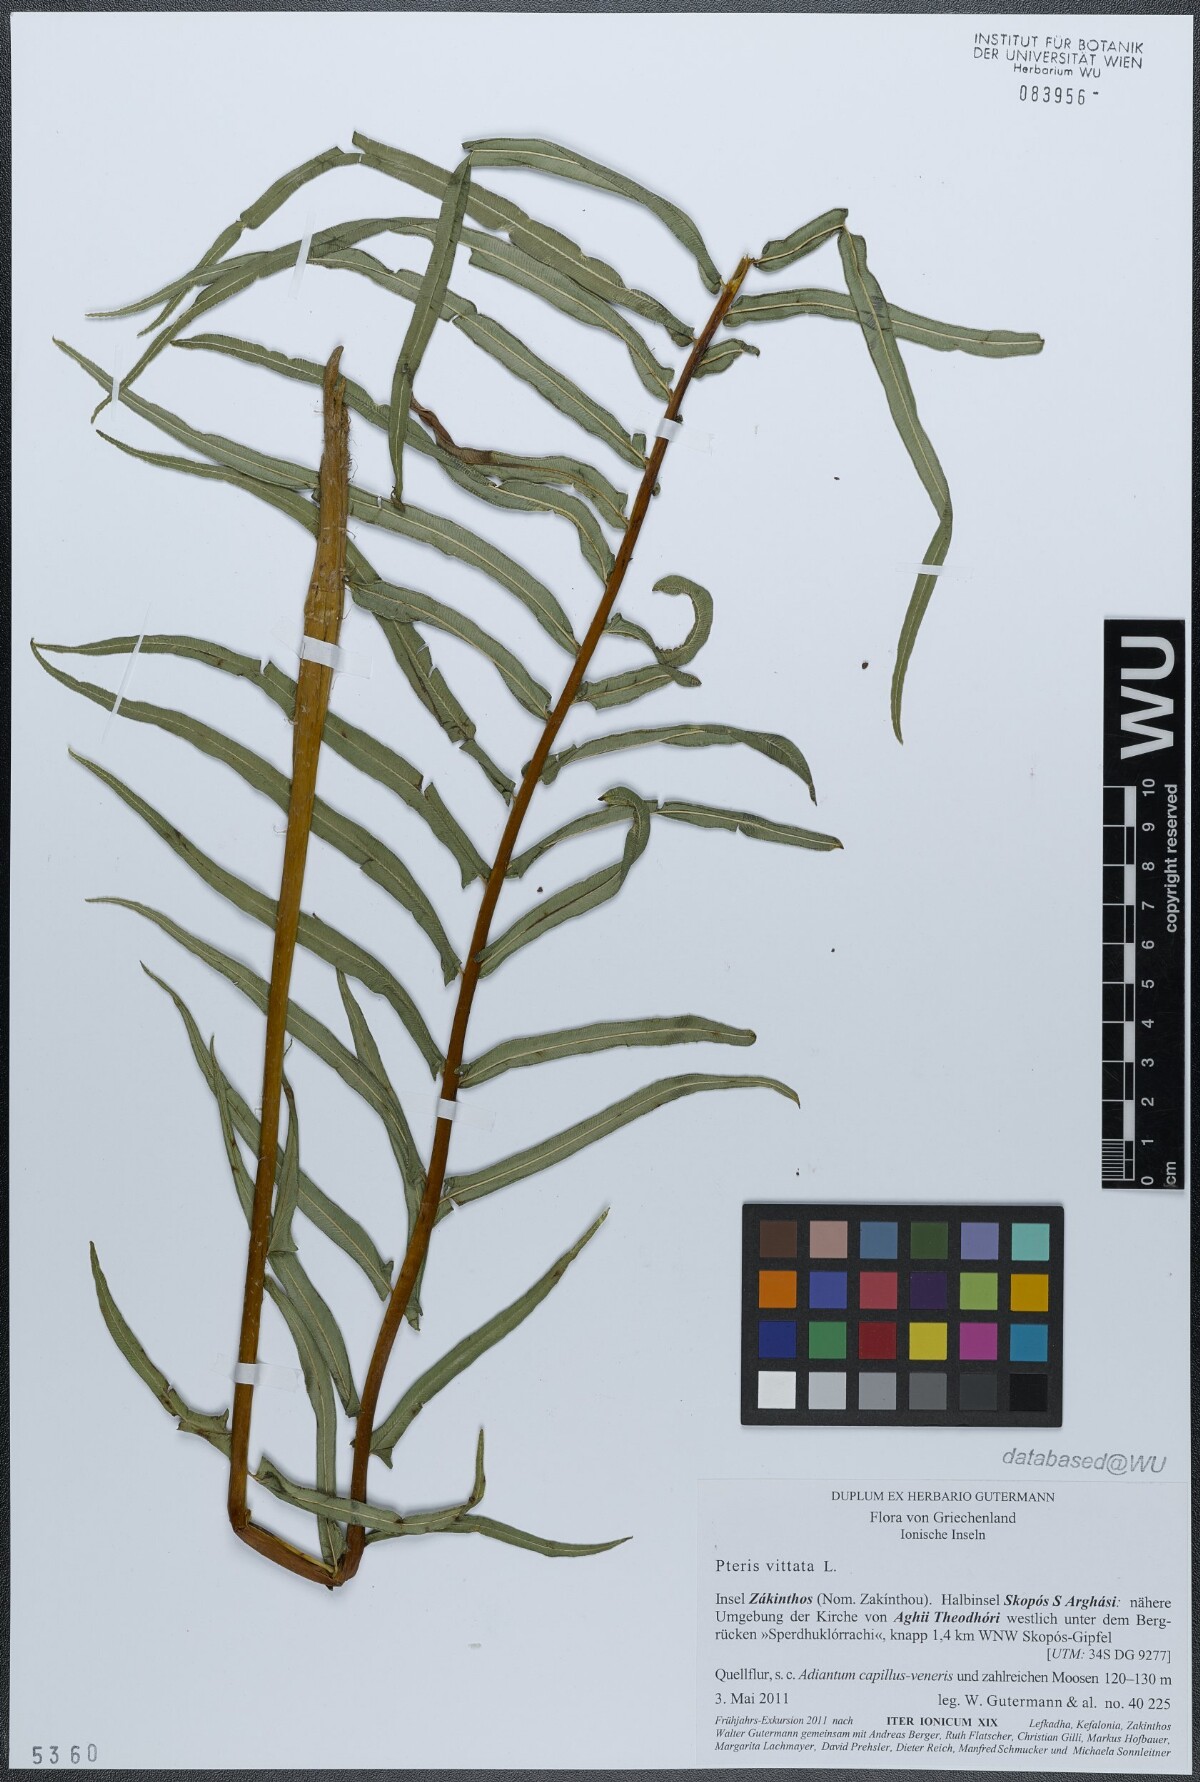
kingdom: Plantae
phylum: Tracheophyta
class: Polypodiopsida
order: Polypodiales
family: Pteridaceae
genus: Pteris
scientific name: Pteris vittata
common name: Ladder brake
